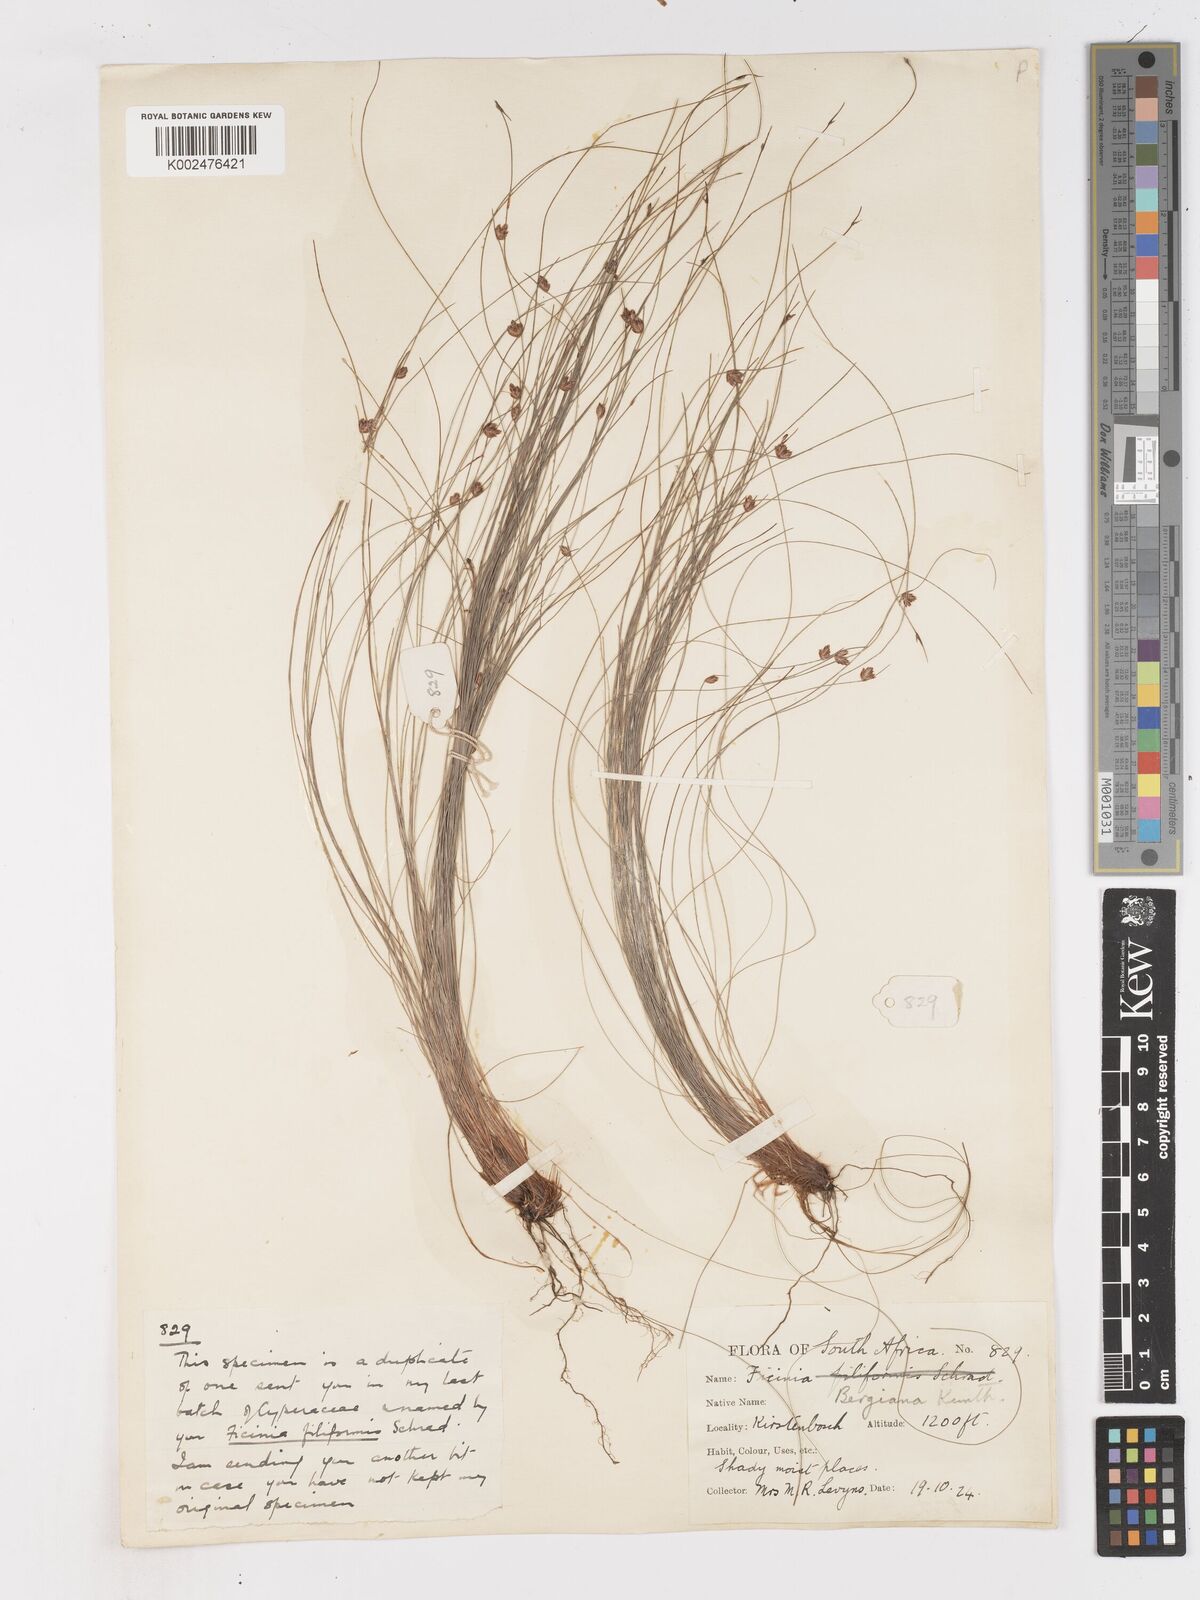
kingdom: Plantae
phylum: Tracheophyta
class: Liliopsida
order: Poales
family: Cyperaceae
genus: Ficinia
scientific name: Ficinia crinita
